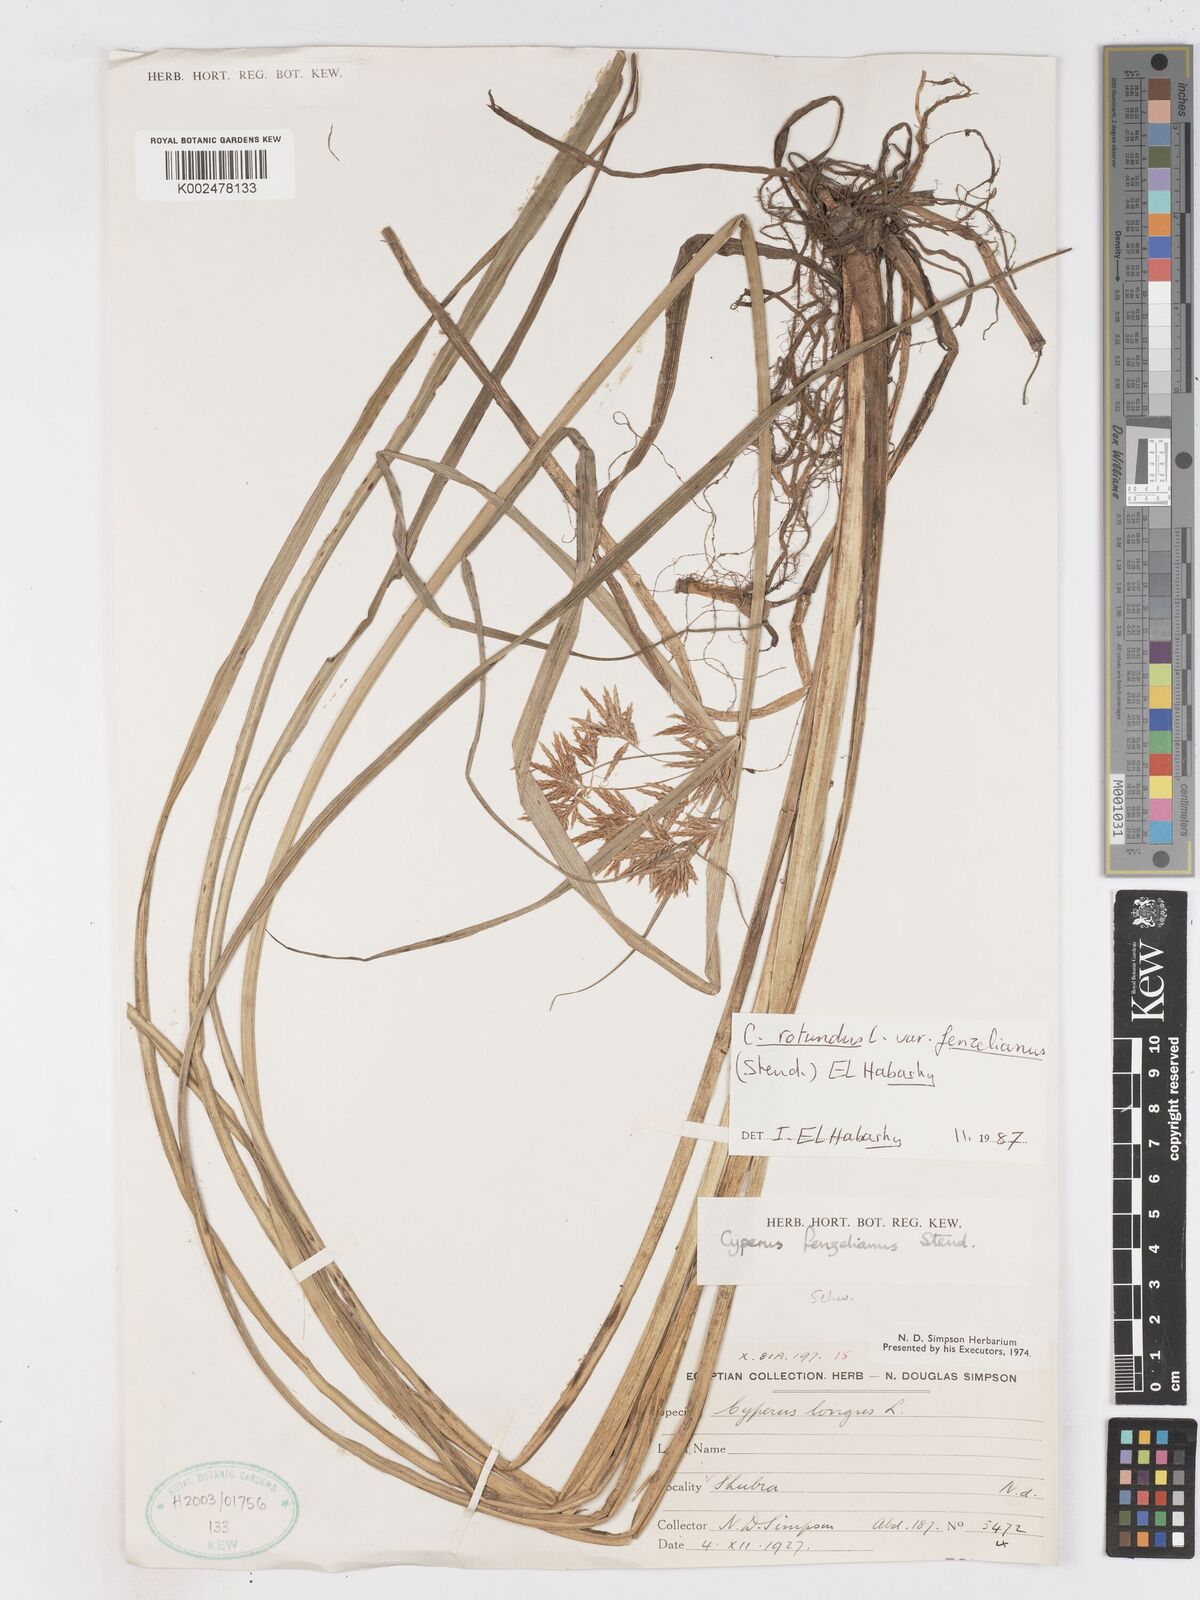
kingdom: Plantae
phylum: Tracheophyta
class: Liliopsida
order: Poales
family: Cyperaceae
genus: Cyperus
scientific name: Cyperus rotundus
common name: Nutgrass
